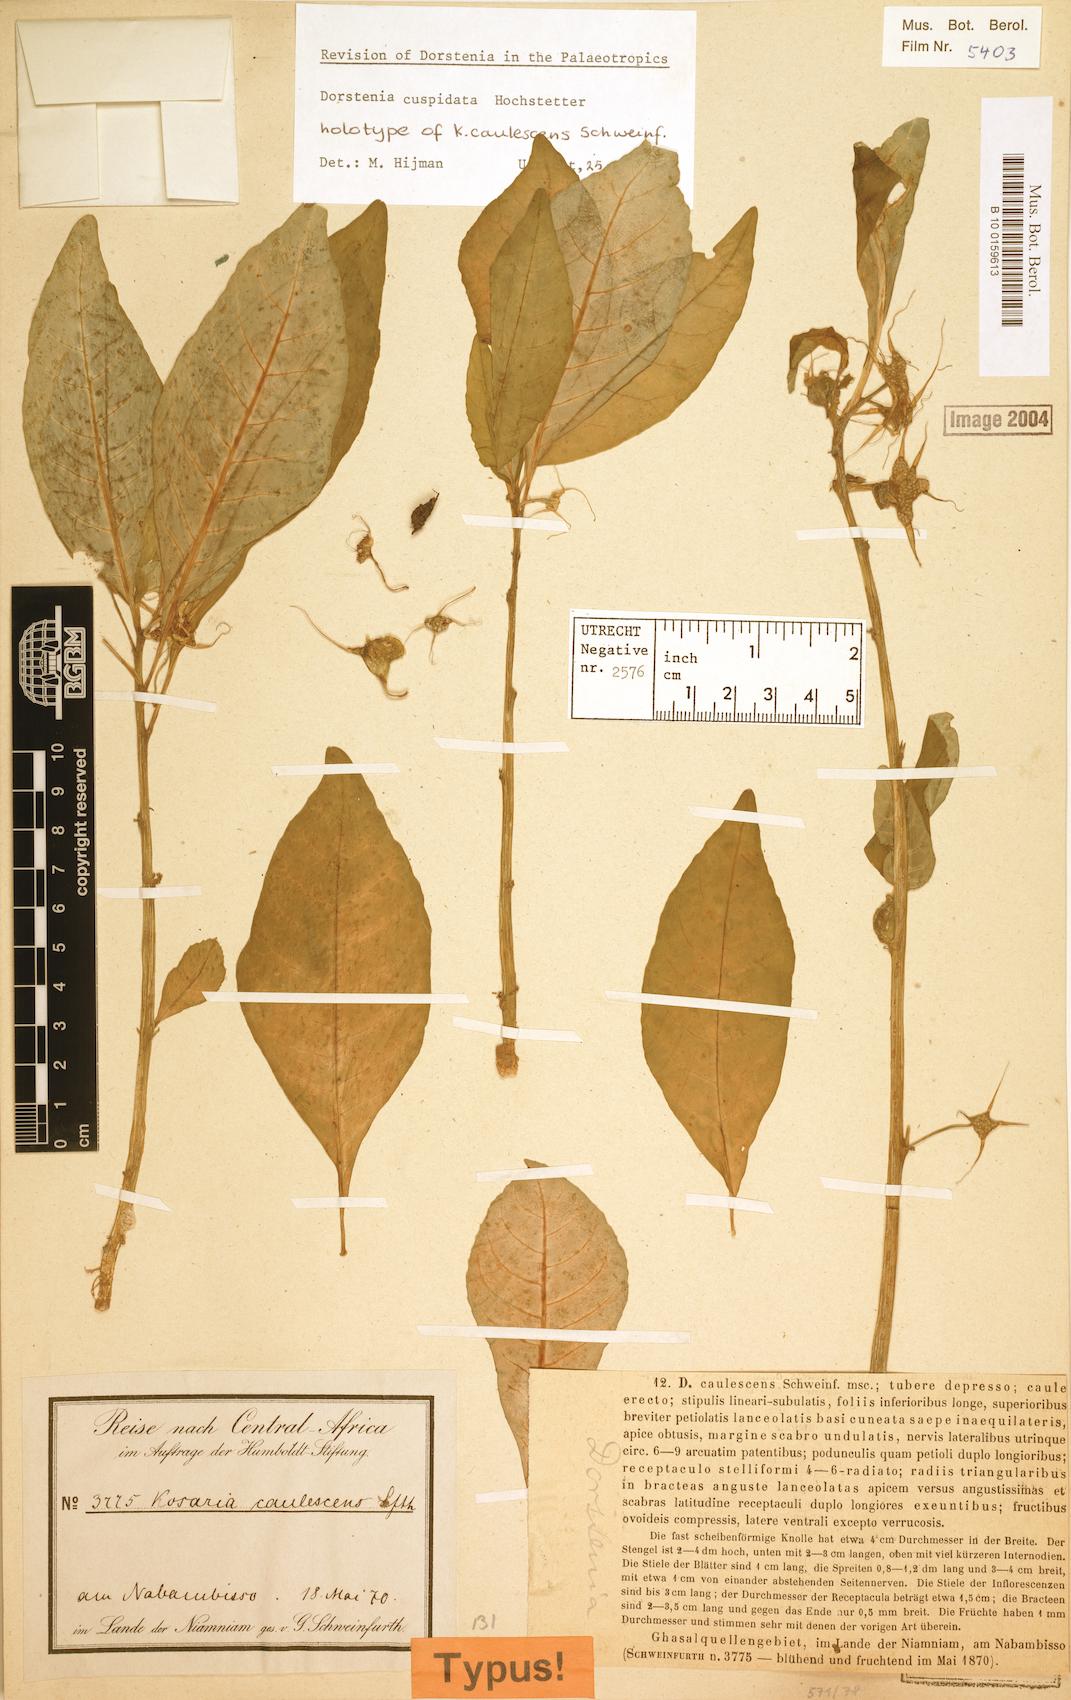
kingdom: Plantae
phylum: Tracheophyta
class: Magnoliopsida
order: Rosales
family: Moraceae
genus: Dorstenia
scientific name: Dorstenia cuspidata
